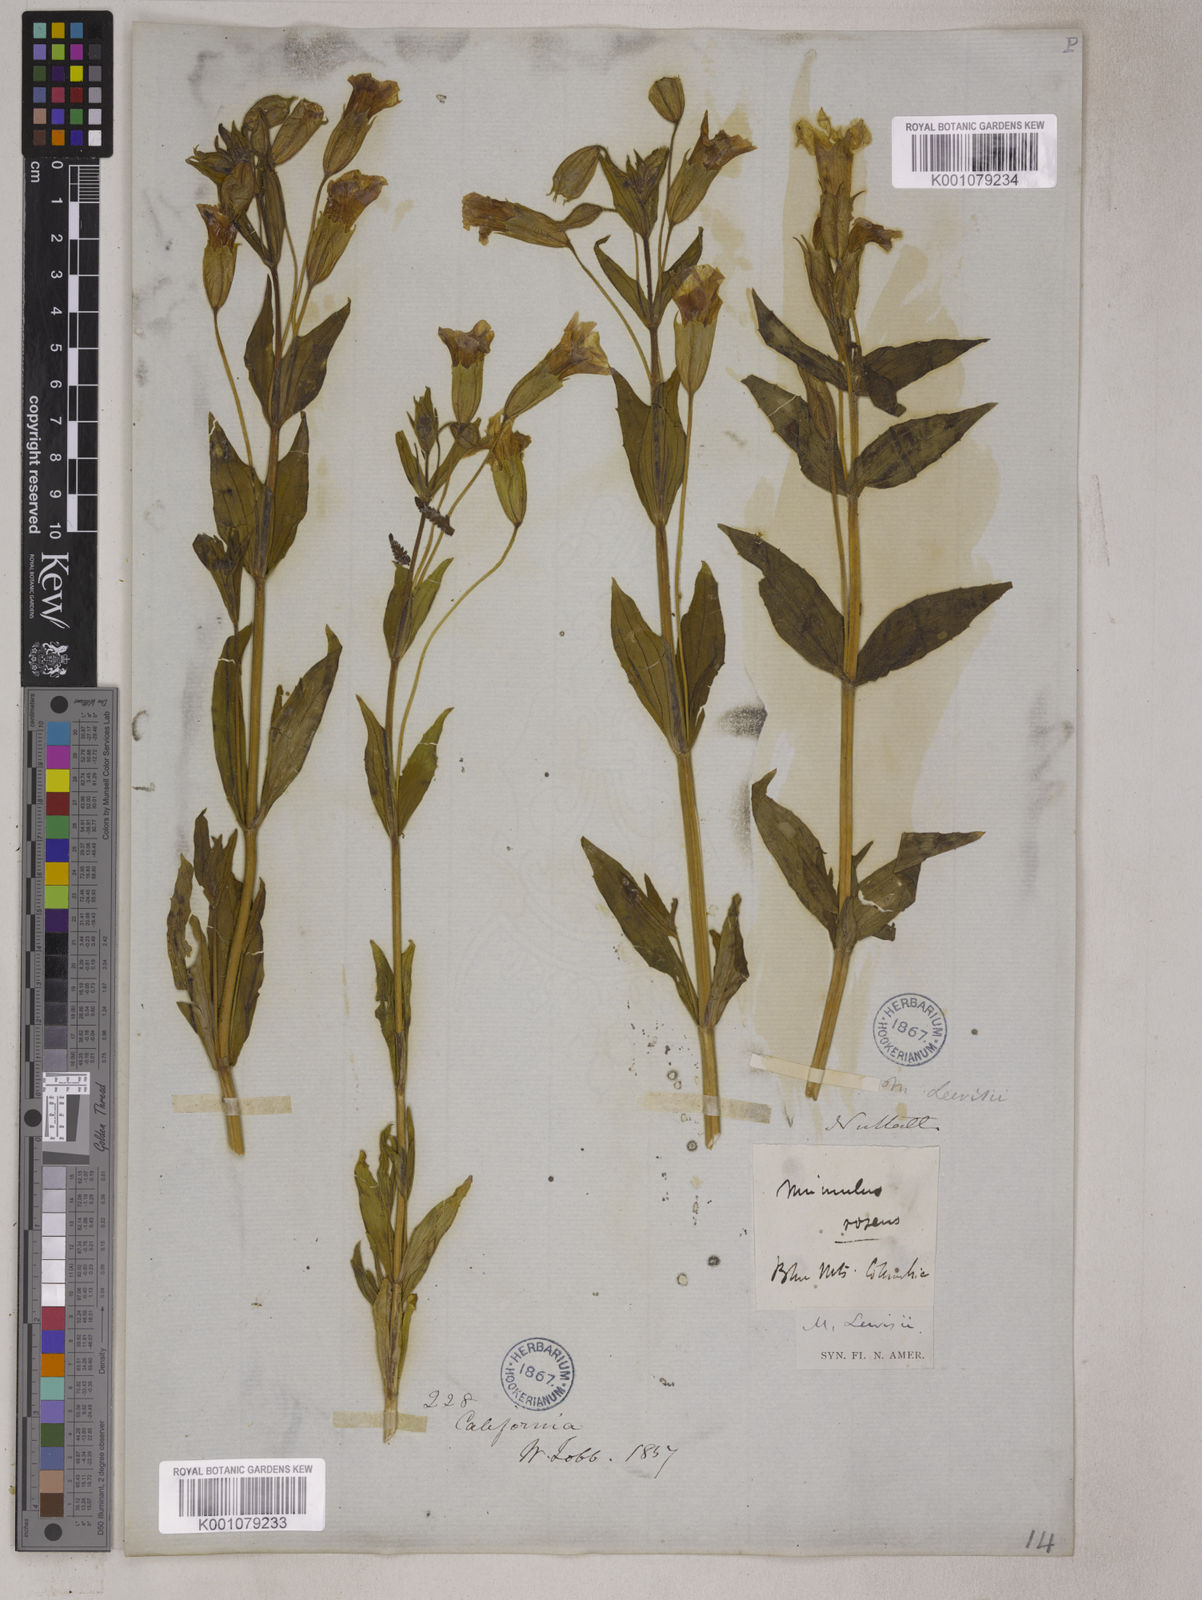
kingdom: Plantae
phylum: Tracheophyta
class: Magnoliopsida
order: Lamiales
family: Phrymaceae
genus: Erythranthe
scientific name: Erythranthe lewisii
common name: Lewis's monkey-flower
